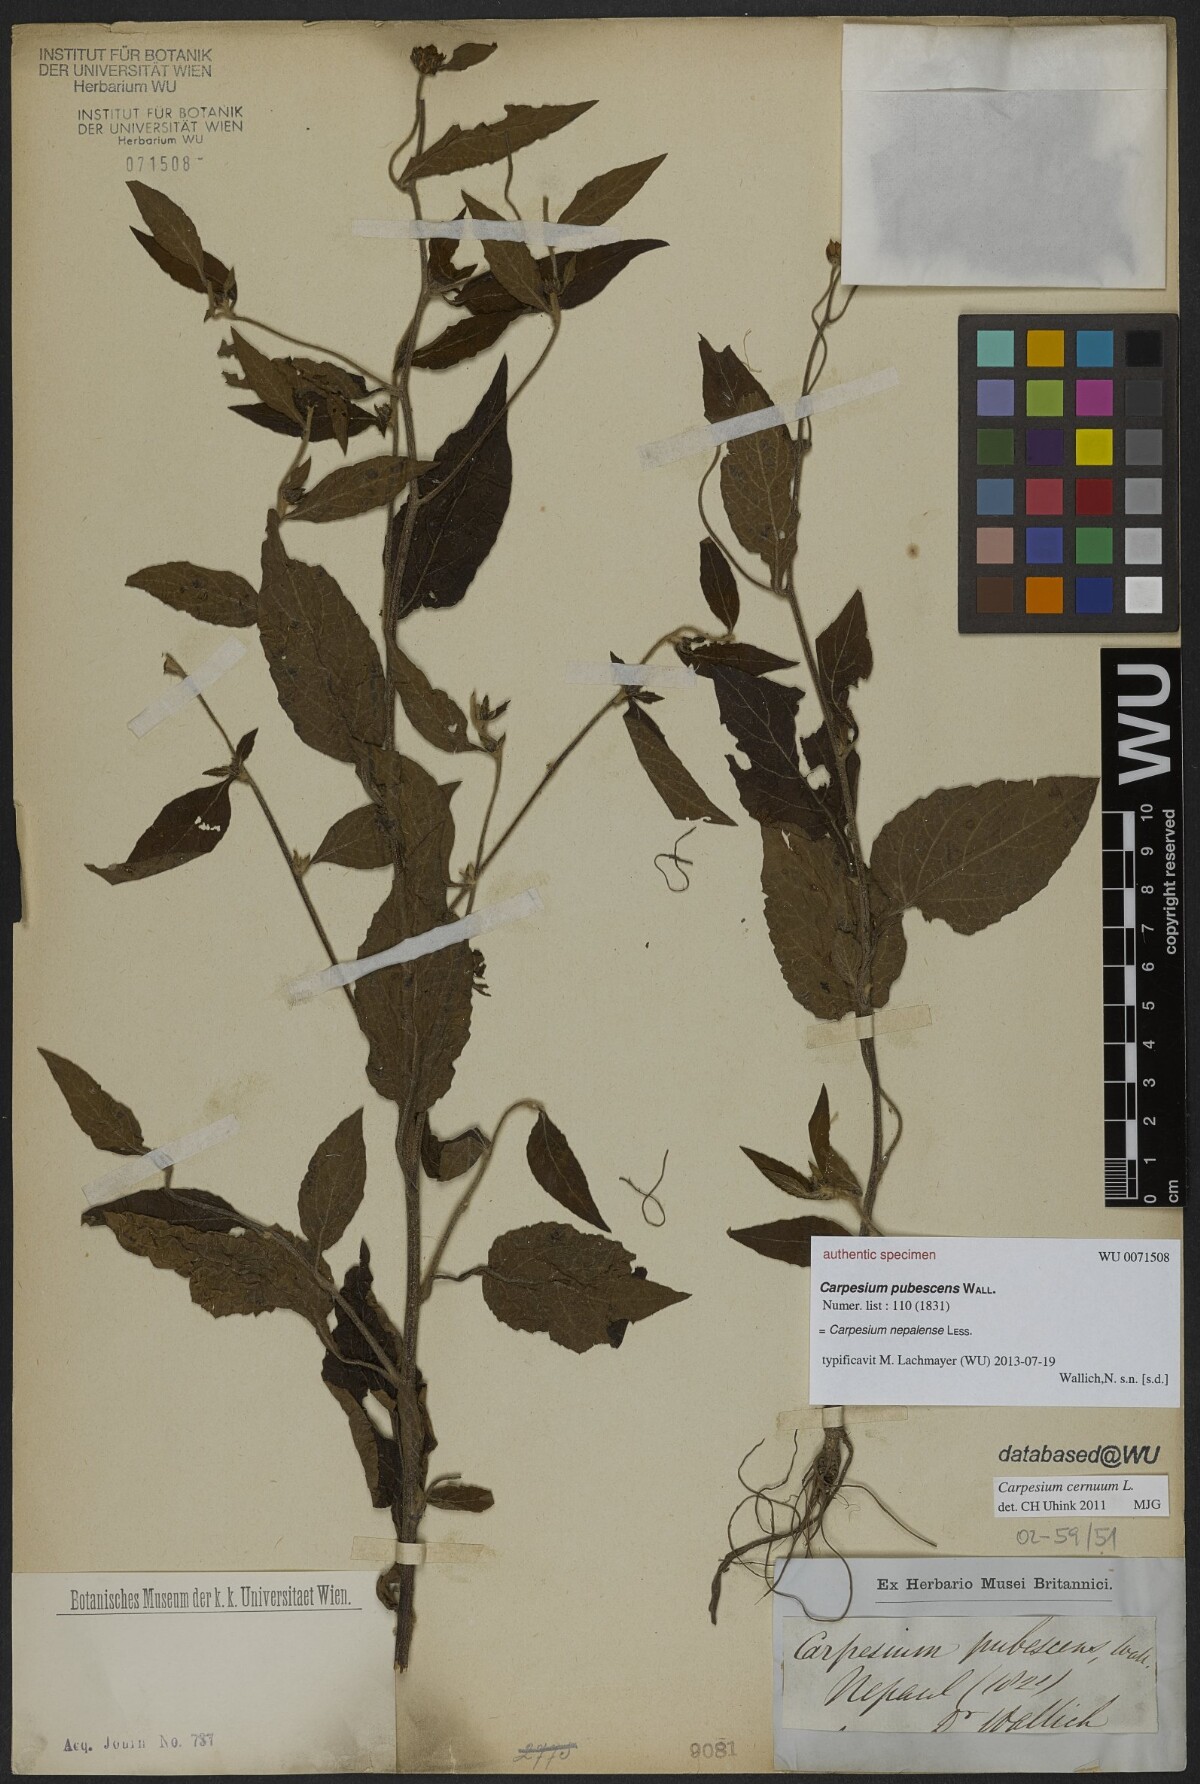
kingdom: Plantae
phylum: Tracheophyta
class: Magnoliopsida
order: Asterales
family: Asteraceae
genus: Carpesium
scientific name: Carpesium cernuum
